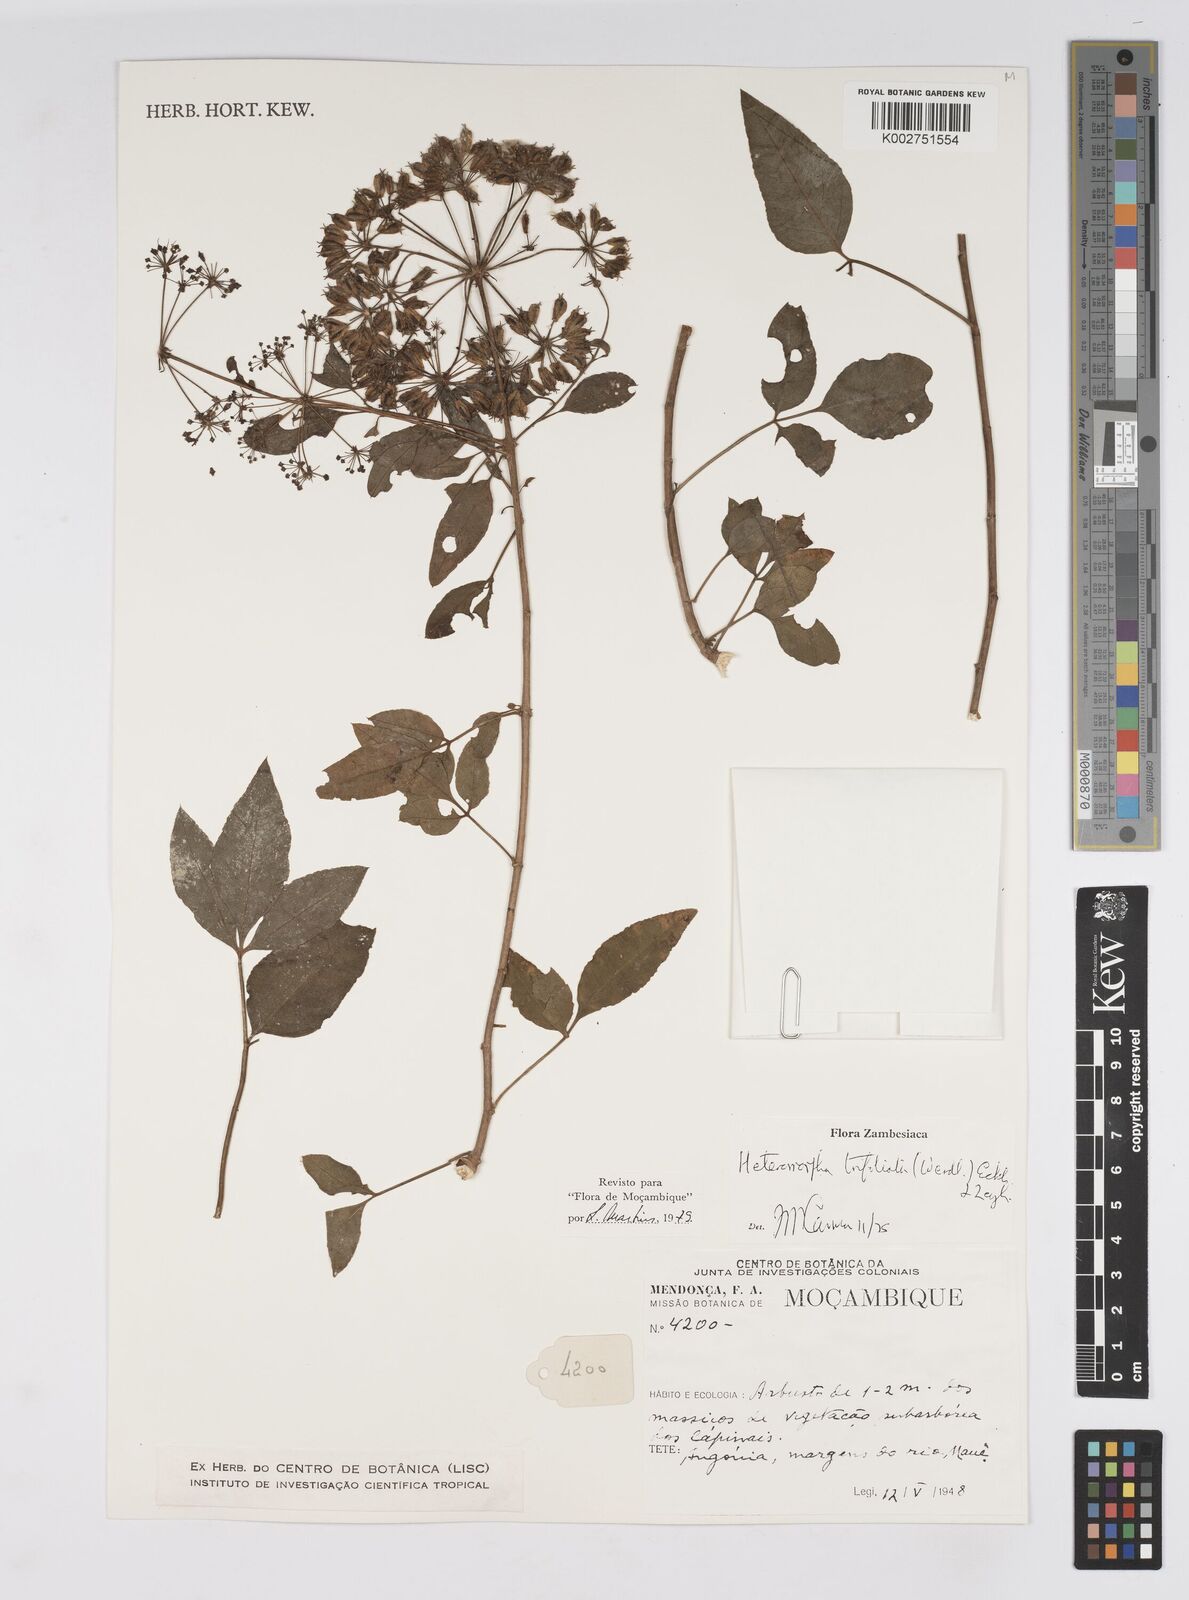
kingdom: Plantae
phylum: Tracheophyta
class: Magnoliopsida
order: Apiales
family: Apiaceae
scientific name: Apiaceae
